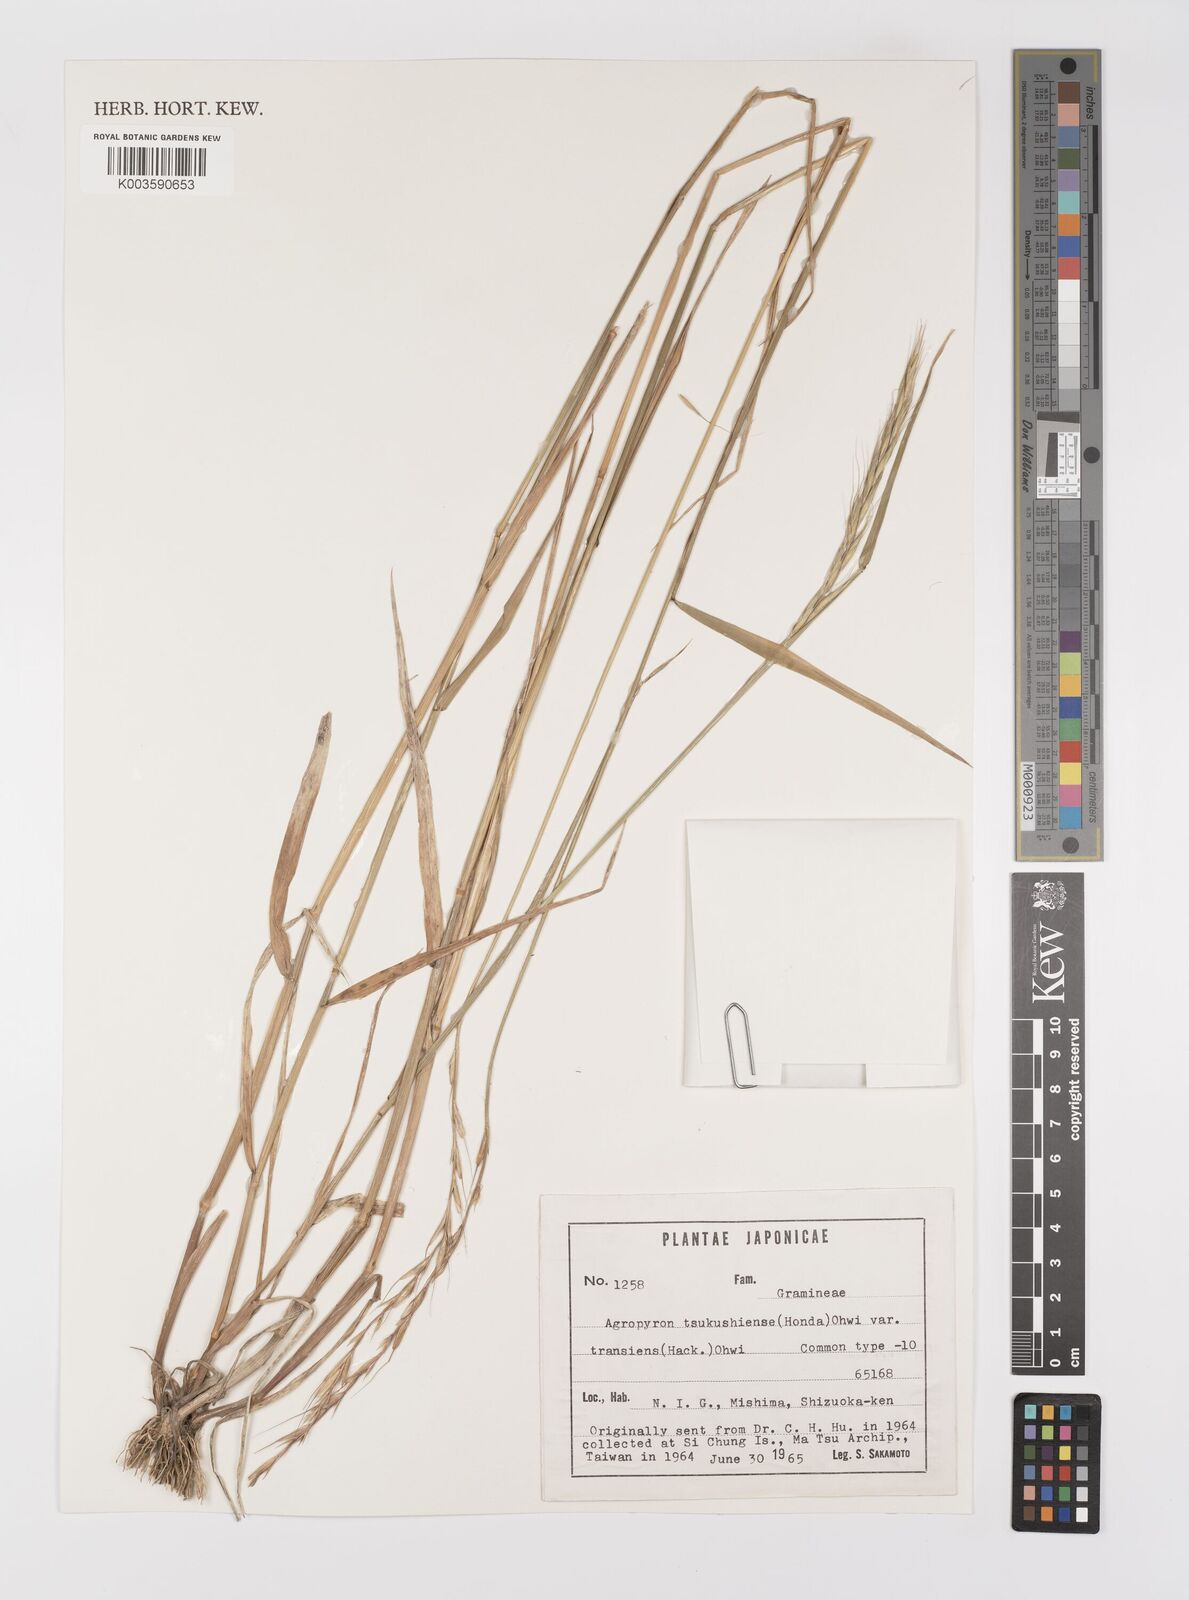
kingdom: Plantae
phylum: Tracheophyta
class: Liliopsida
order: Poales
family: Poaceae
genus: Elymus
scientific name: Elymus tsukushiensis
